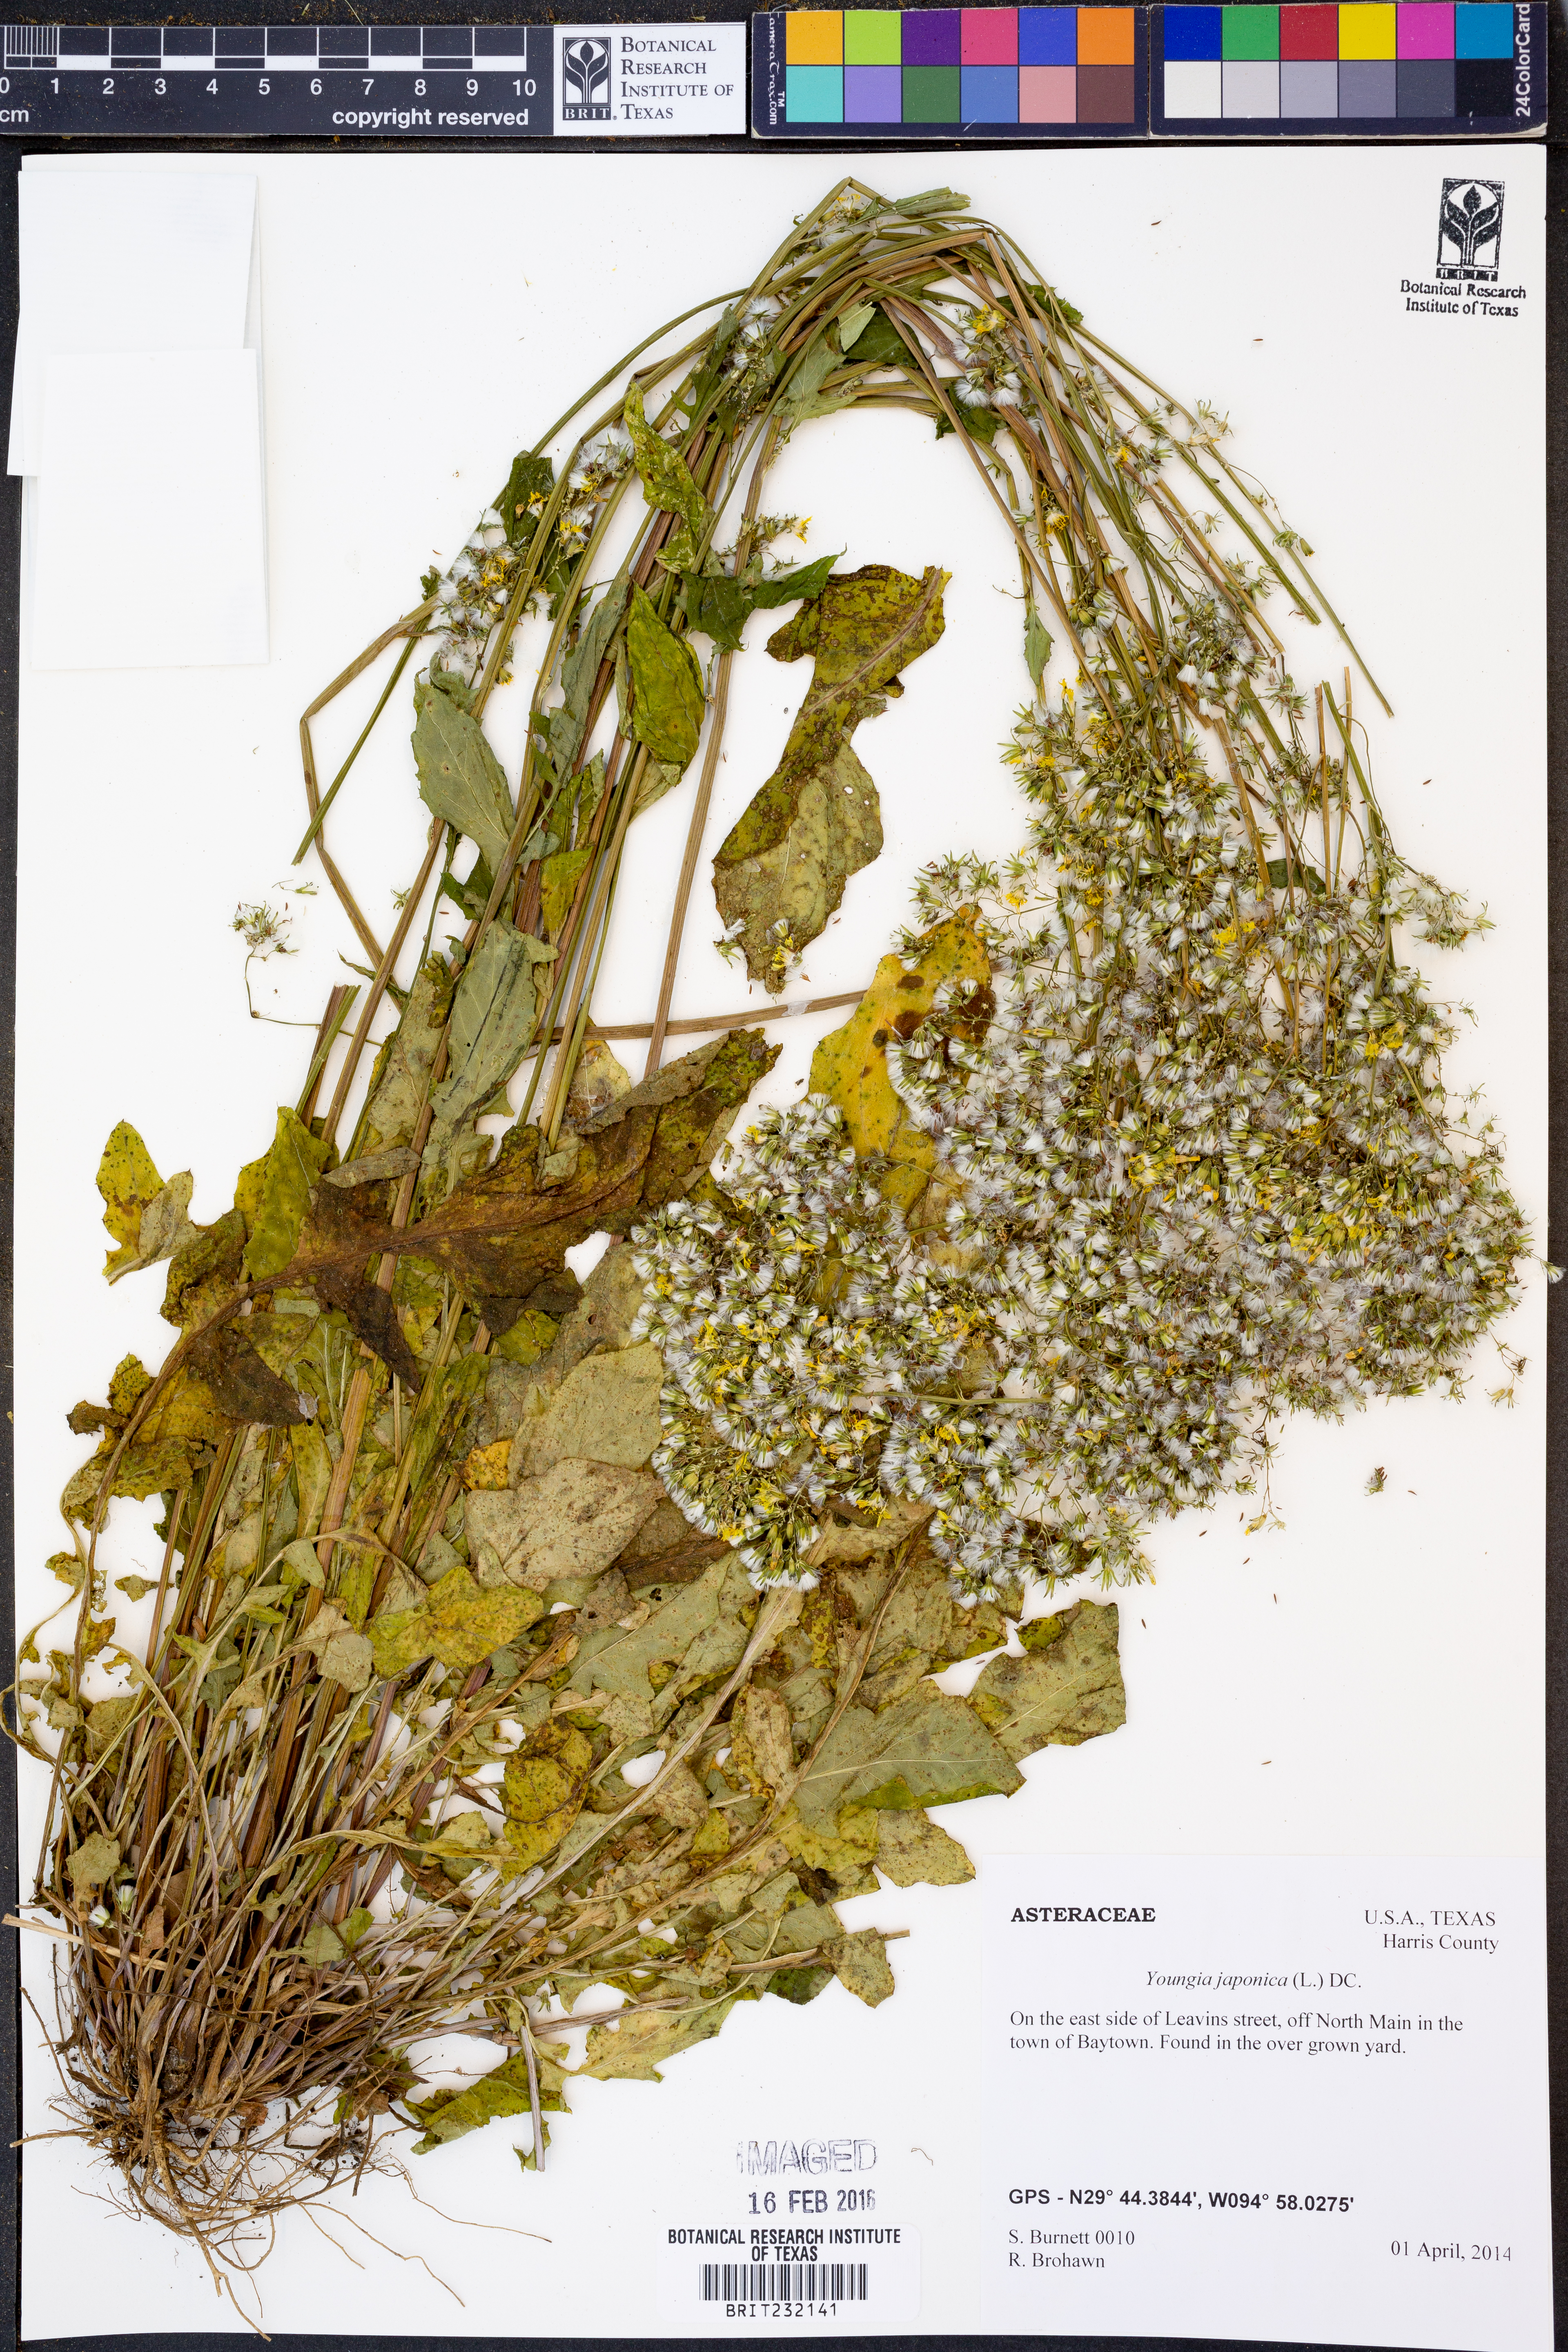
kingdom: Plantae
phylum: Tracheophyta
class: Magnoliopsida
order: Asterales
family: Asteraceae
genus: Youngia
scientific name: Youngia japonica
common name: Oriental false hawksbeard
